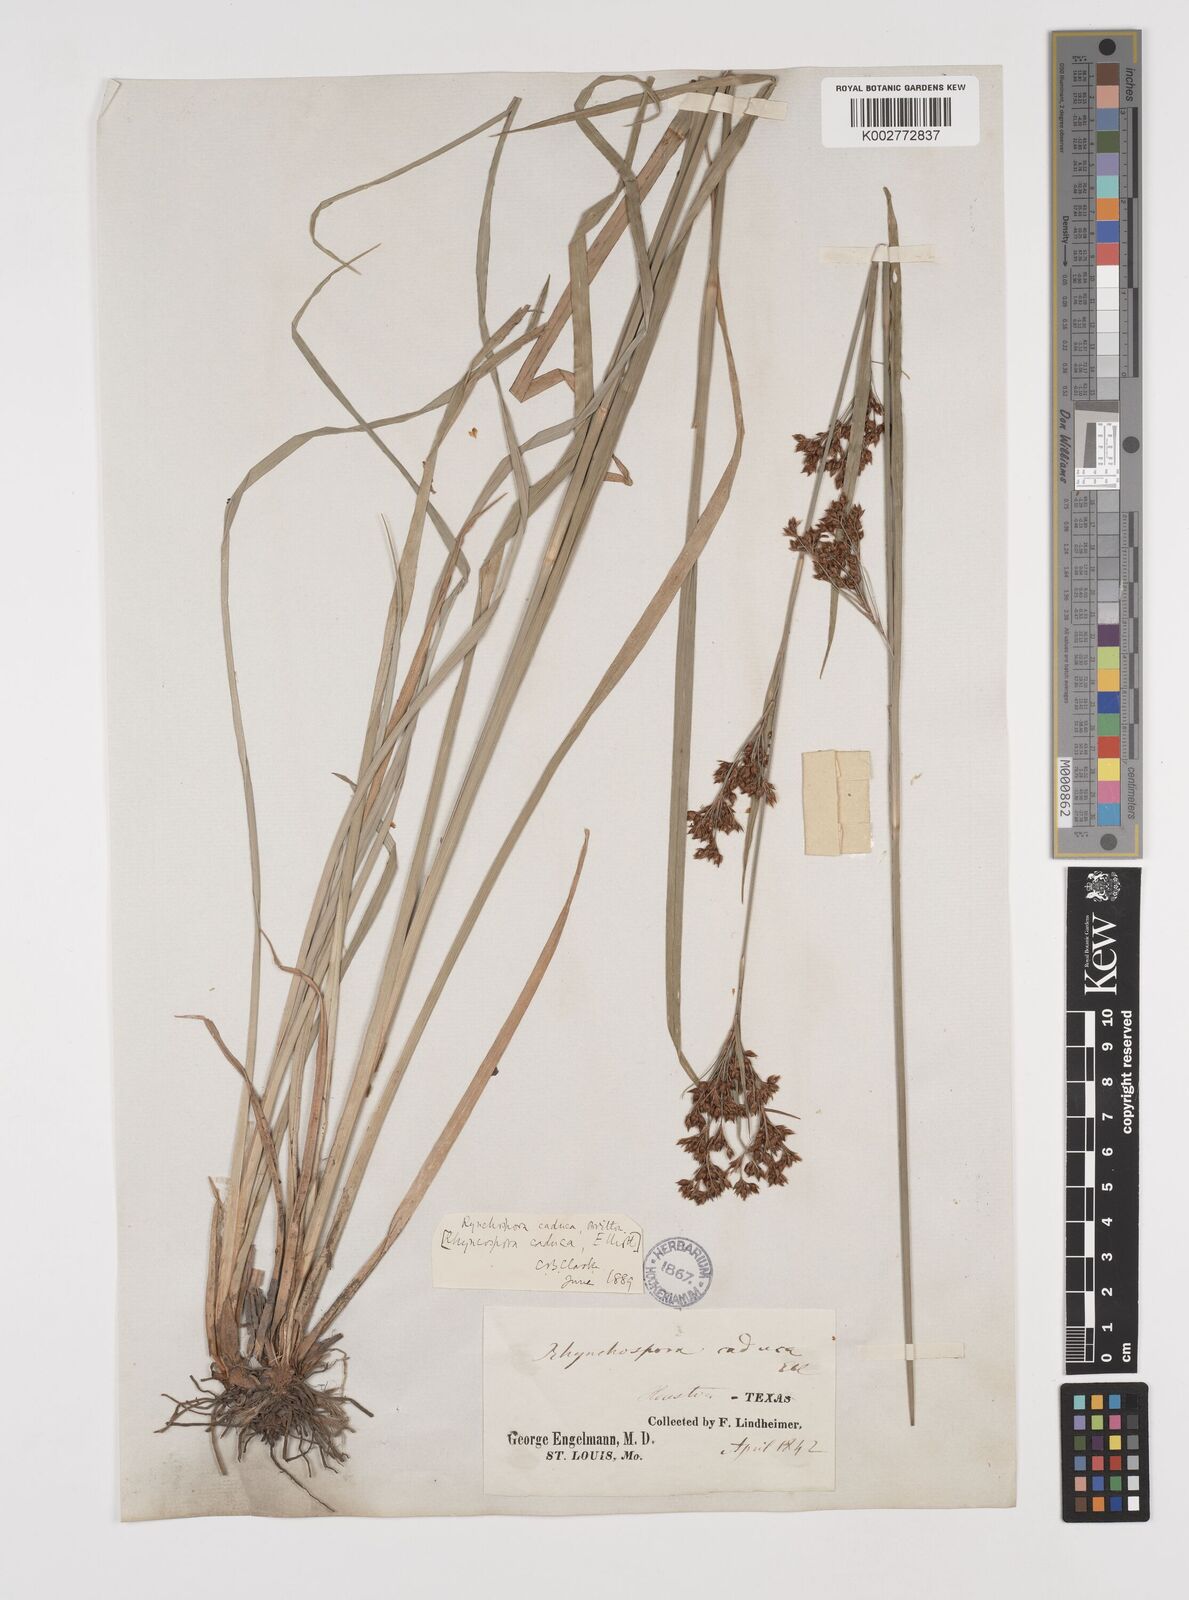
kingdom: Plantae
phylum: Tracheophyta
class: Liliopsida
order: Poales
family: Cyperaceae
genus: Rhynchospora
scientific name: Rhynchospora caduca
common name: Anglestem beaksedge
